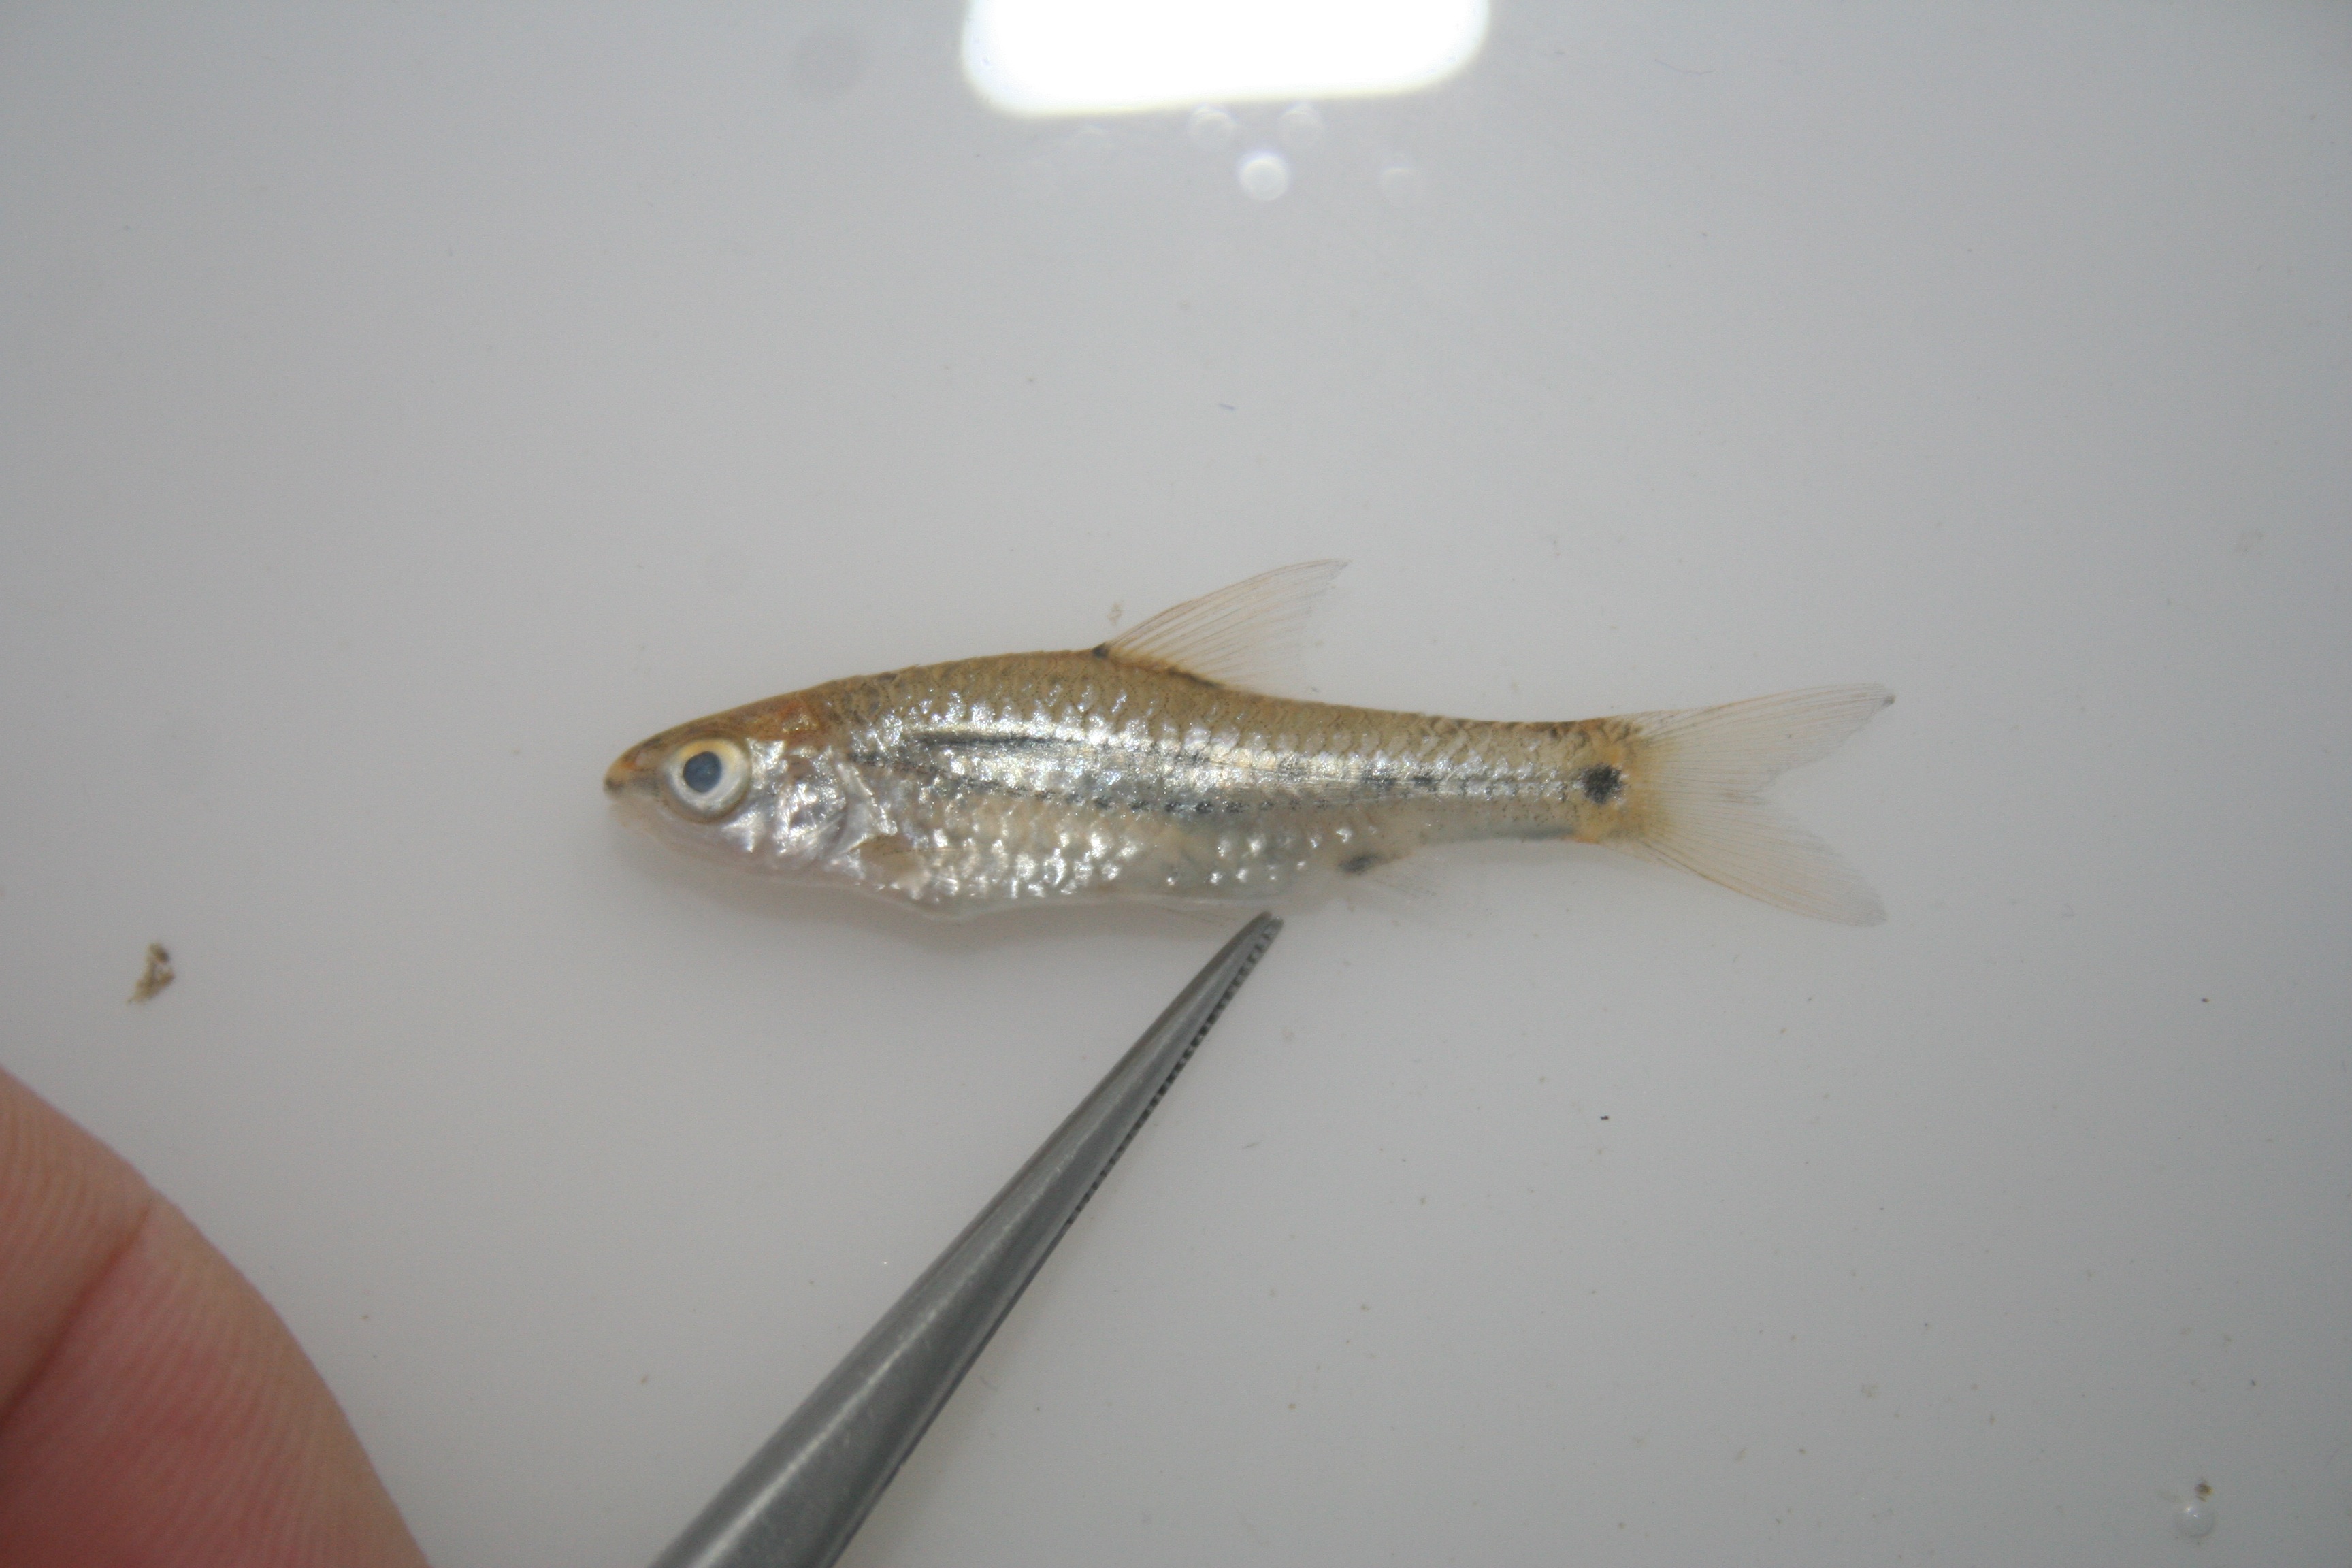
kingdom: Animalia
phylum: Chordata
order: Cypriniformes
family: Cyprinidae
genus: Enteromius
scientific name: Enteromius greenwoodi
